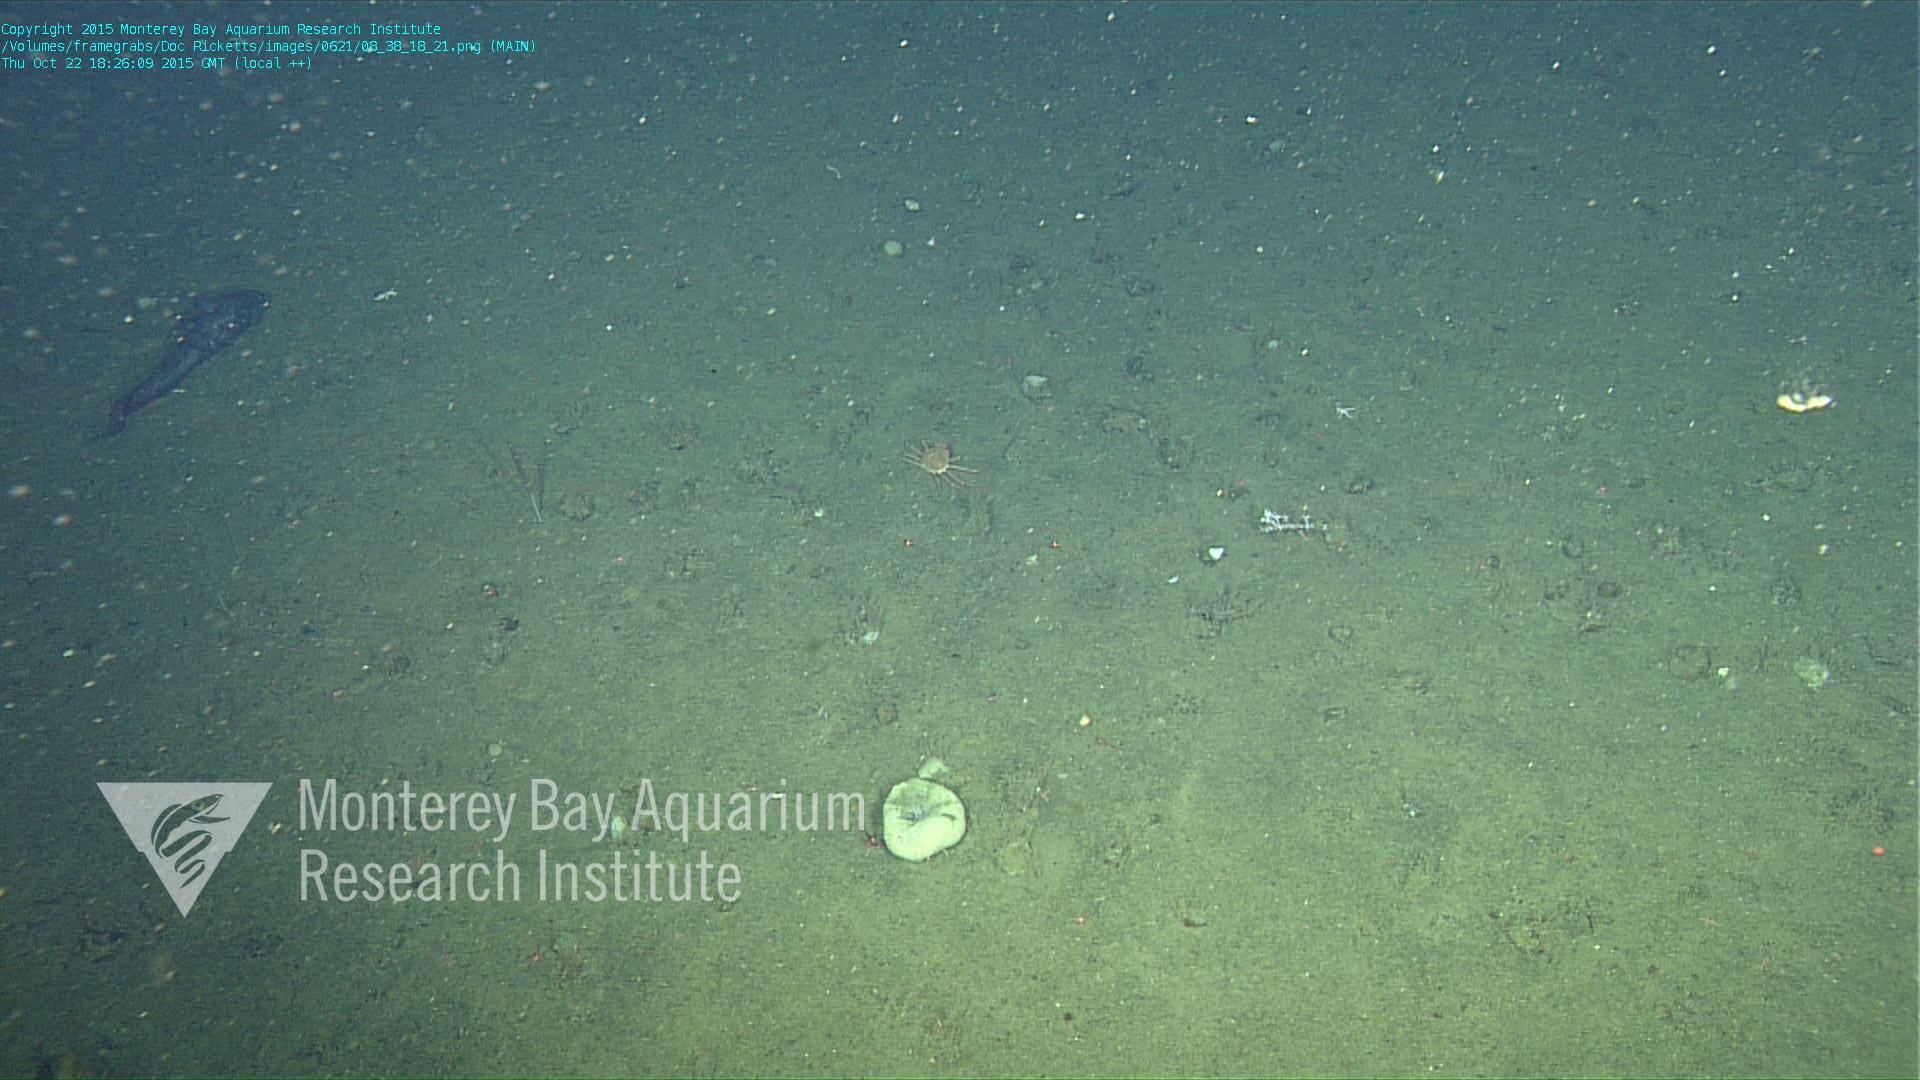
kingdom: Animalia
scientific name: Animalia
